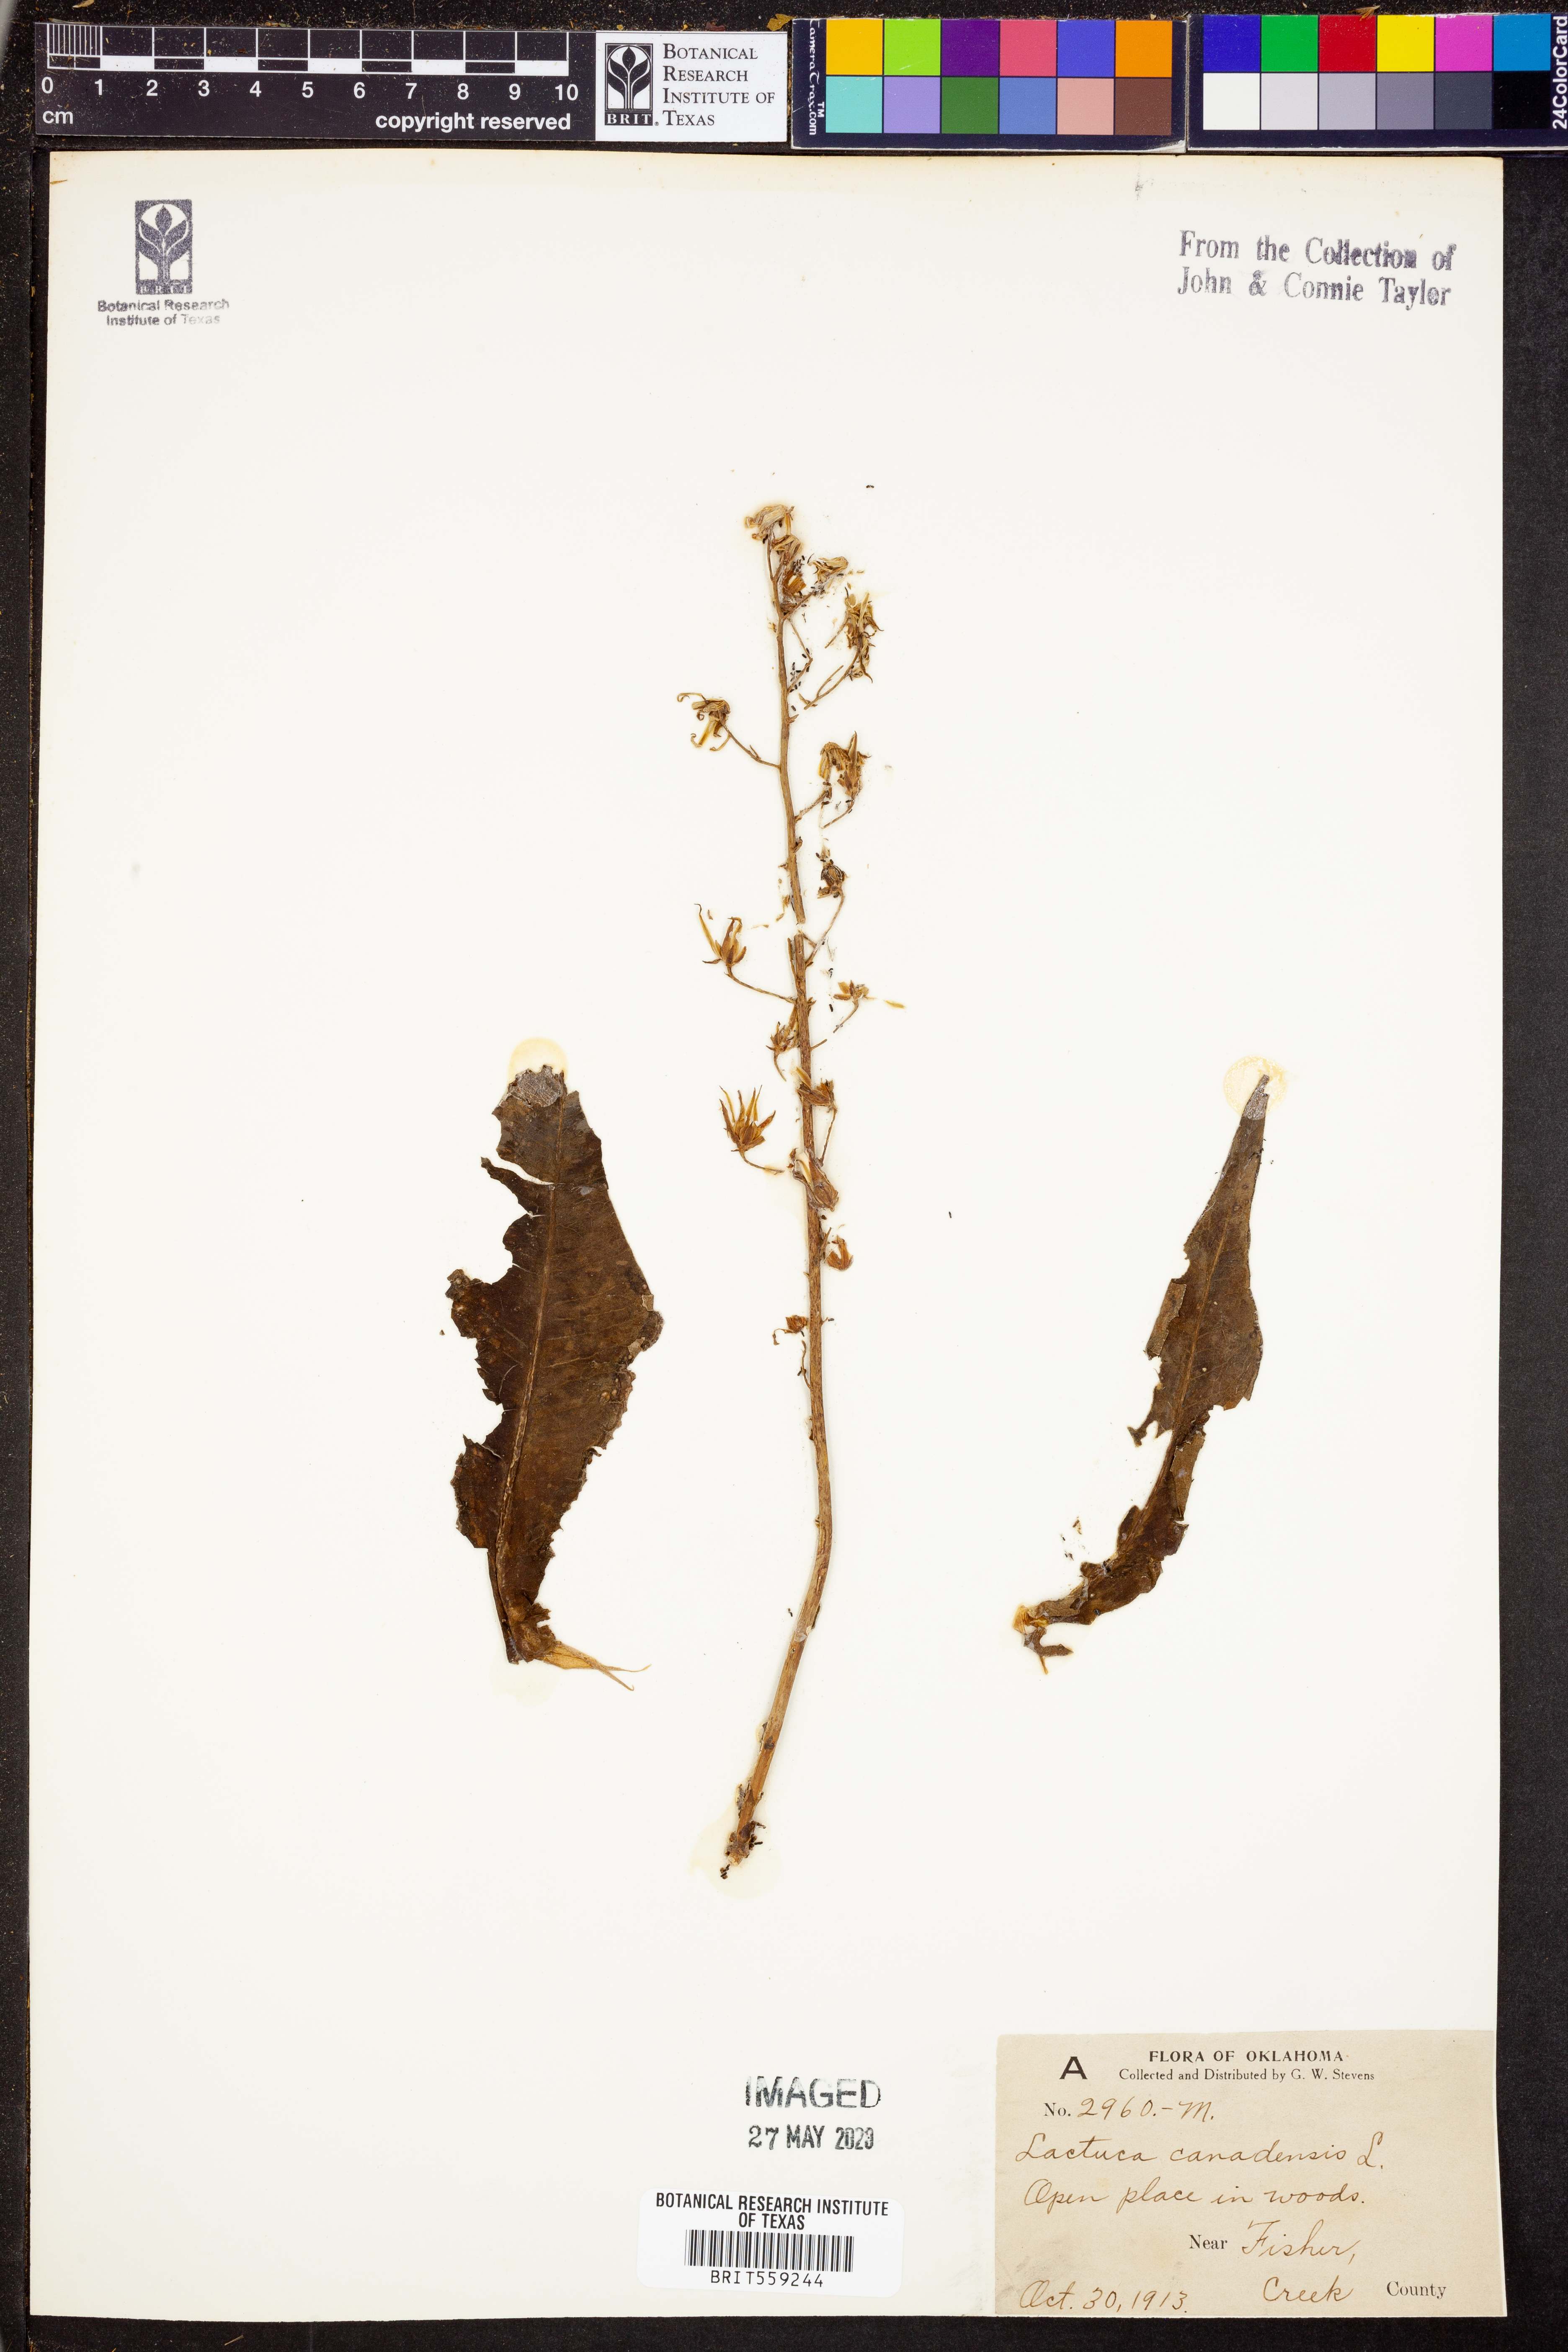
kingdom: Plantae
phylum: Tracheophyta
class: Magnoliopsida
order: Asterales
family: Asteraceae
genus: Lactuca
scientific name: Lactuca canadensis
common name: Canada lettuce
